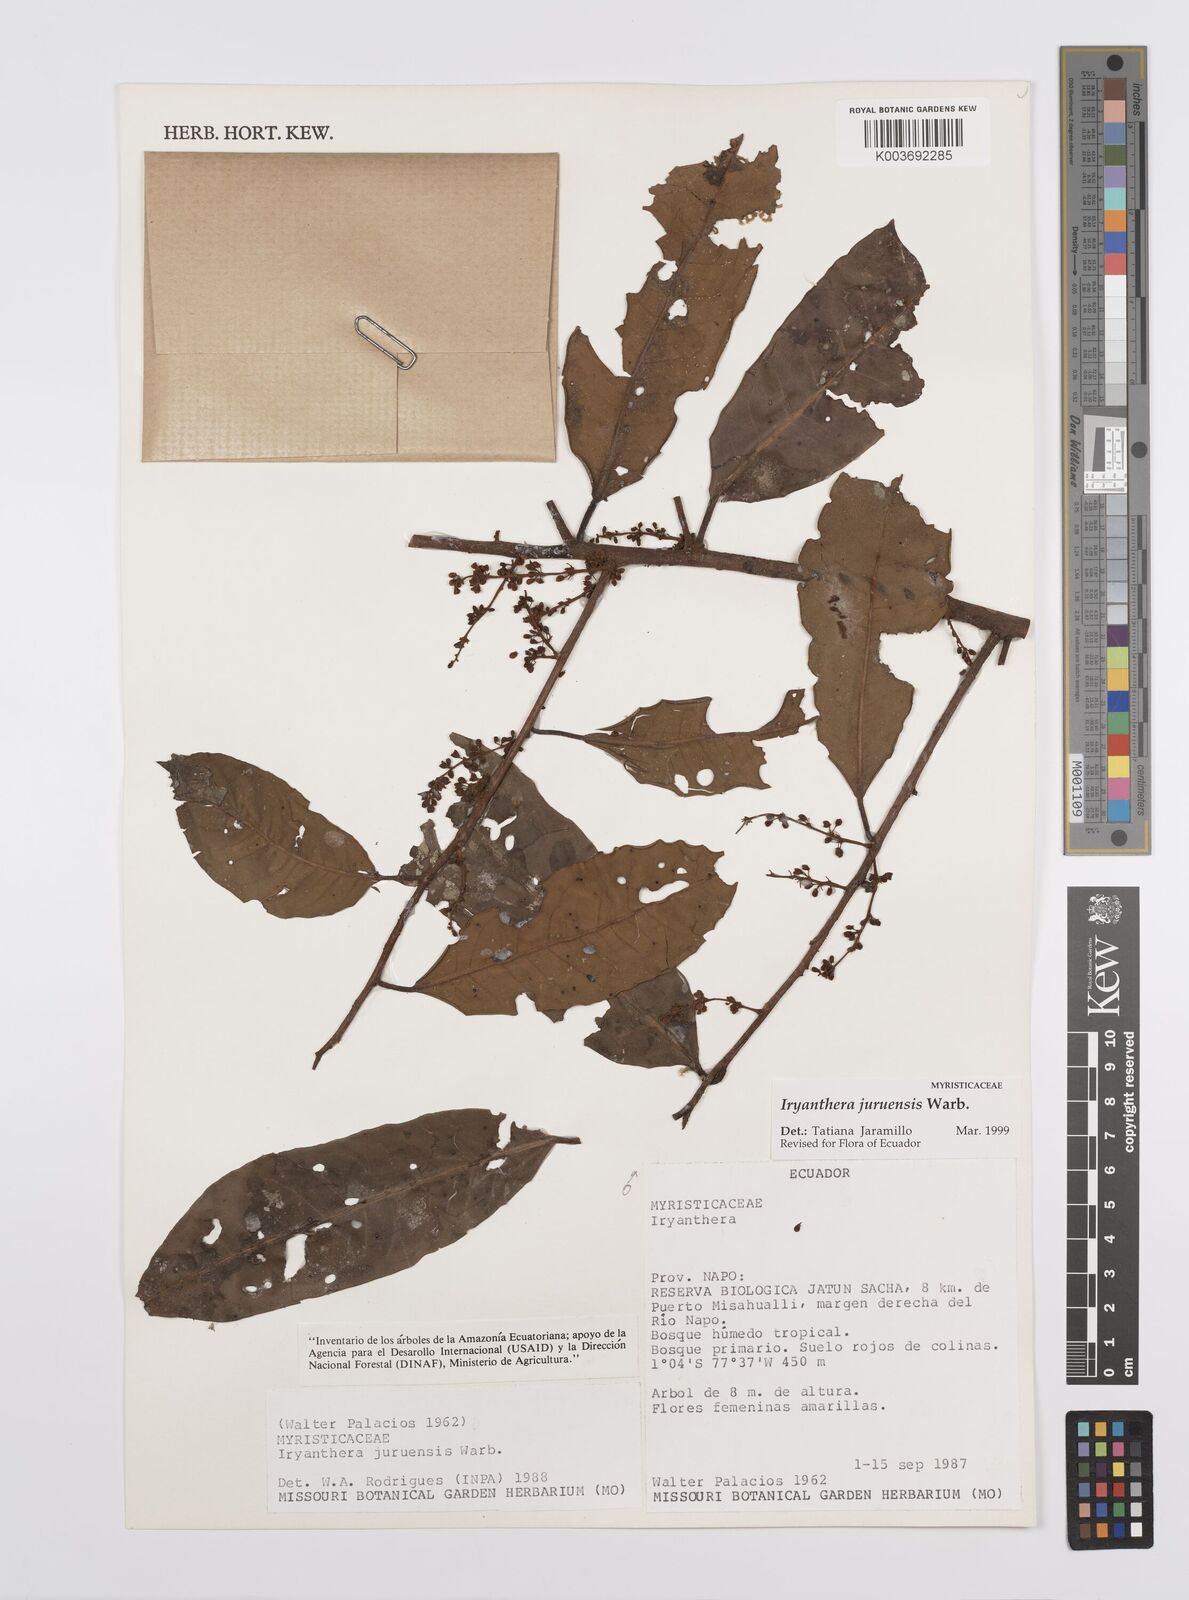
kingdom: Plantae
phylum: Tracheophyta
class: Magnoliopsida
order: Magnoliales
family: Myristicaceae
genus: Iryanthera
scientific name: Iryanthera juruensis
